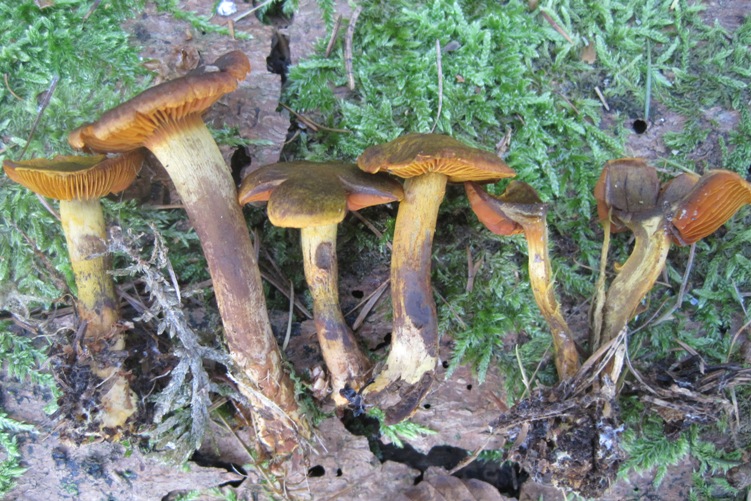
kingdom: Fungi
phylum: Basidiomycota
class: Agaricomycetes
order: Agaricales
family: Cortinariaceae
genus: Cortinarius
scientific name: Cortinarius malicorius
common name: grønkødet slørhat
